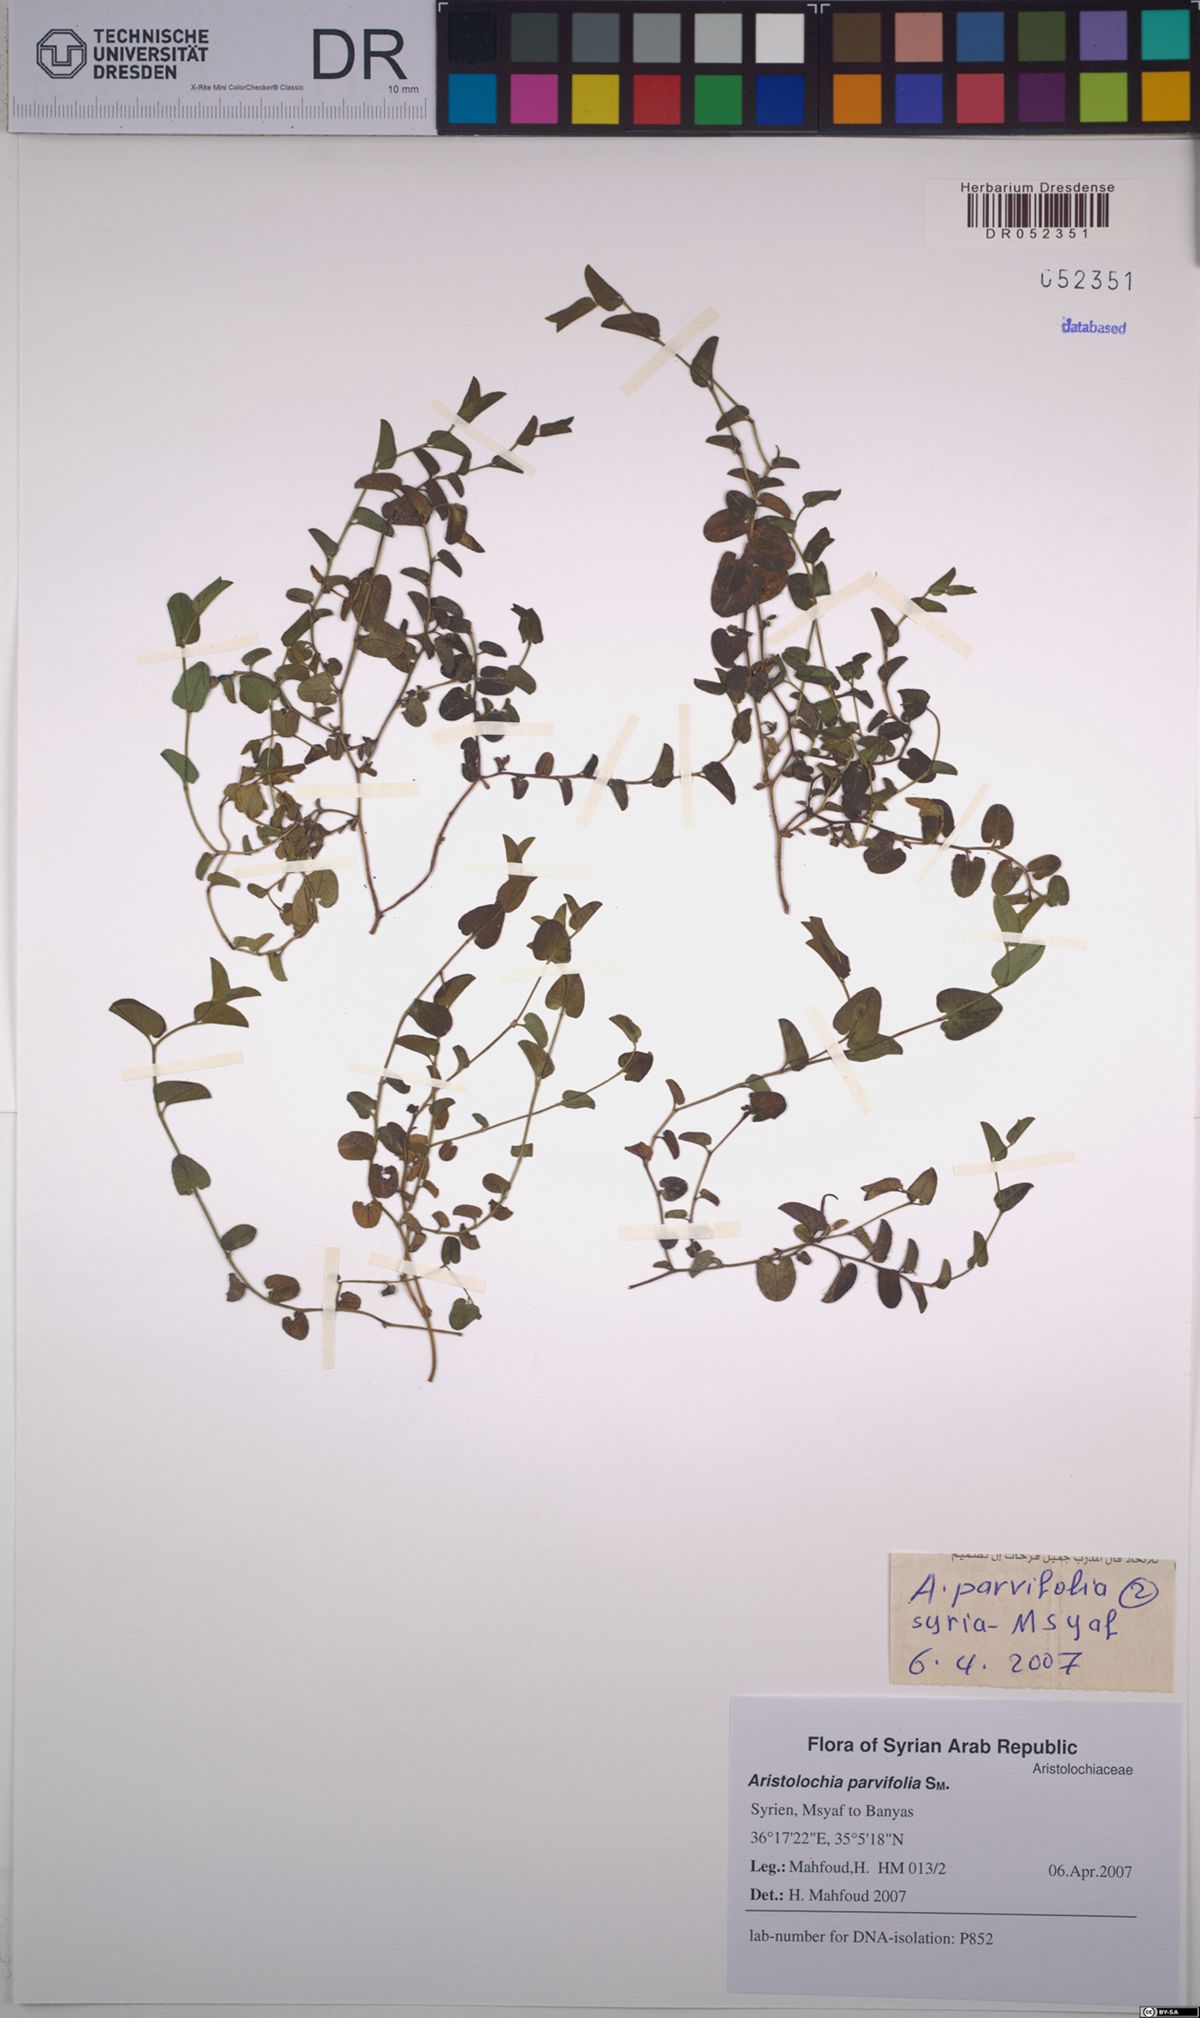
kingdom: Plantae
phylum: Tracheophyta
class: Magnoliopsida
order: Piperales
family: Aristolochiaceae
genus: Aristolochia
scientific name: Aristolochia parvifolia
